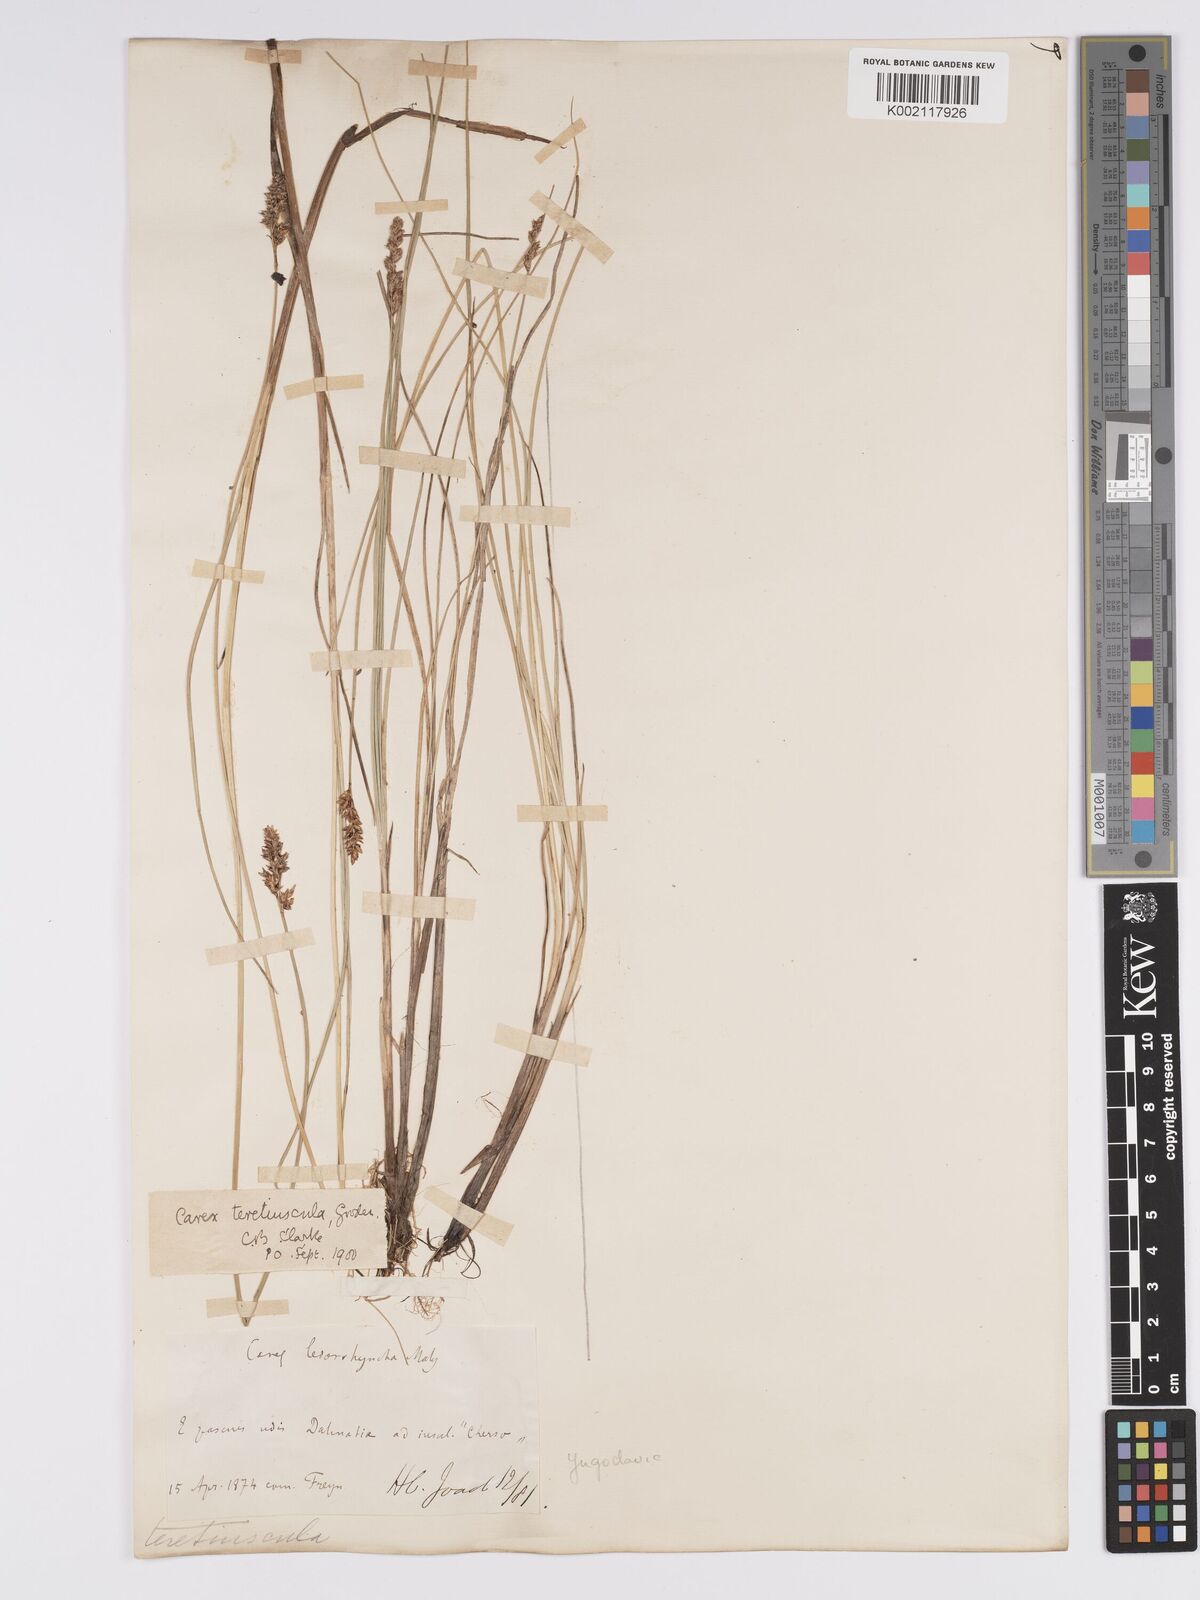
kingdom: Plantae
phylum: Tracheophyta
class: Liliopsida
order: Poales
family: Cyperaceae
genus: Carex
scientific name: Carex diandra
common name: Lesser tussock-sedge
